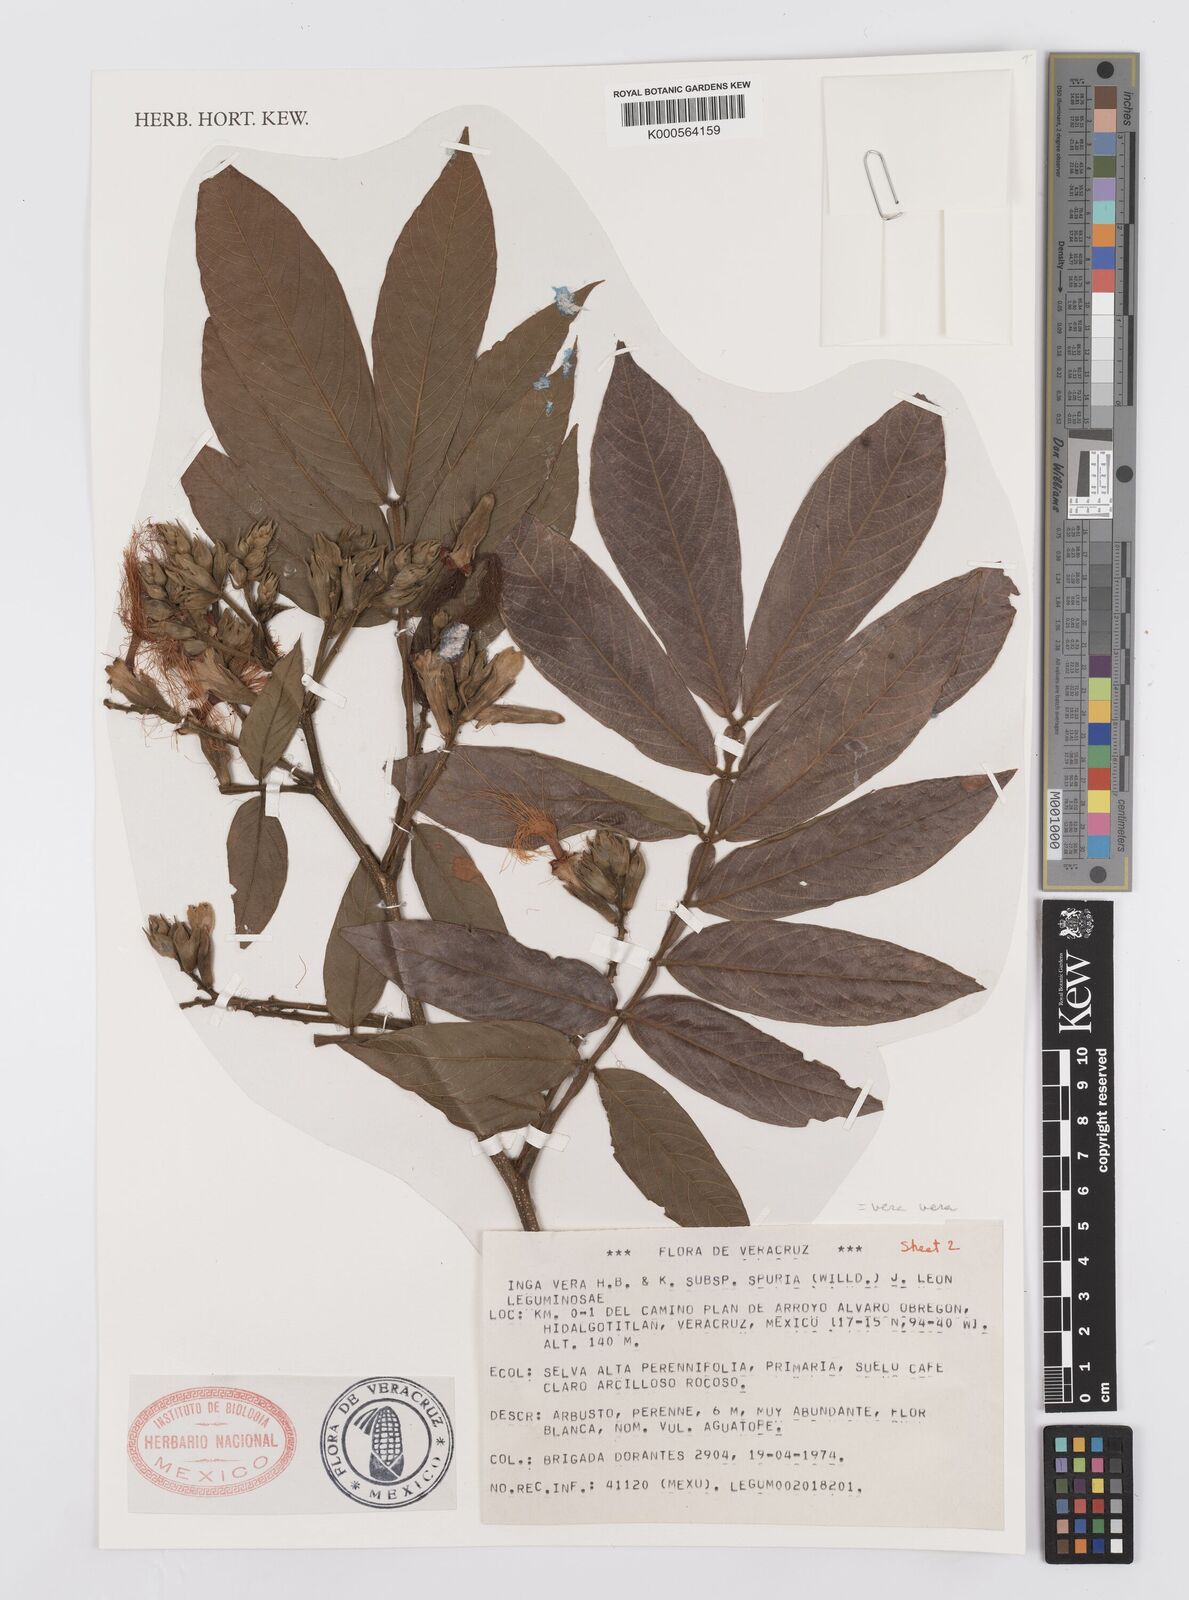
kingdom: Plantae
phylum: Tracheophyta
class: Magnoliopsida
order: Fabales
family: Fabaceae
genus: Inga
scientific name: Inga vera
